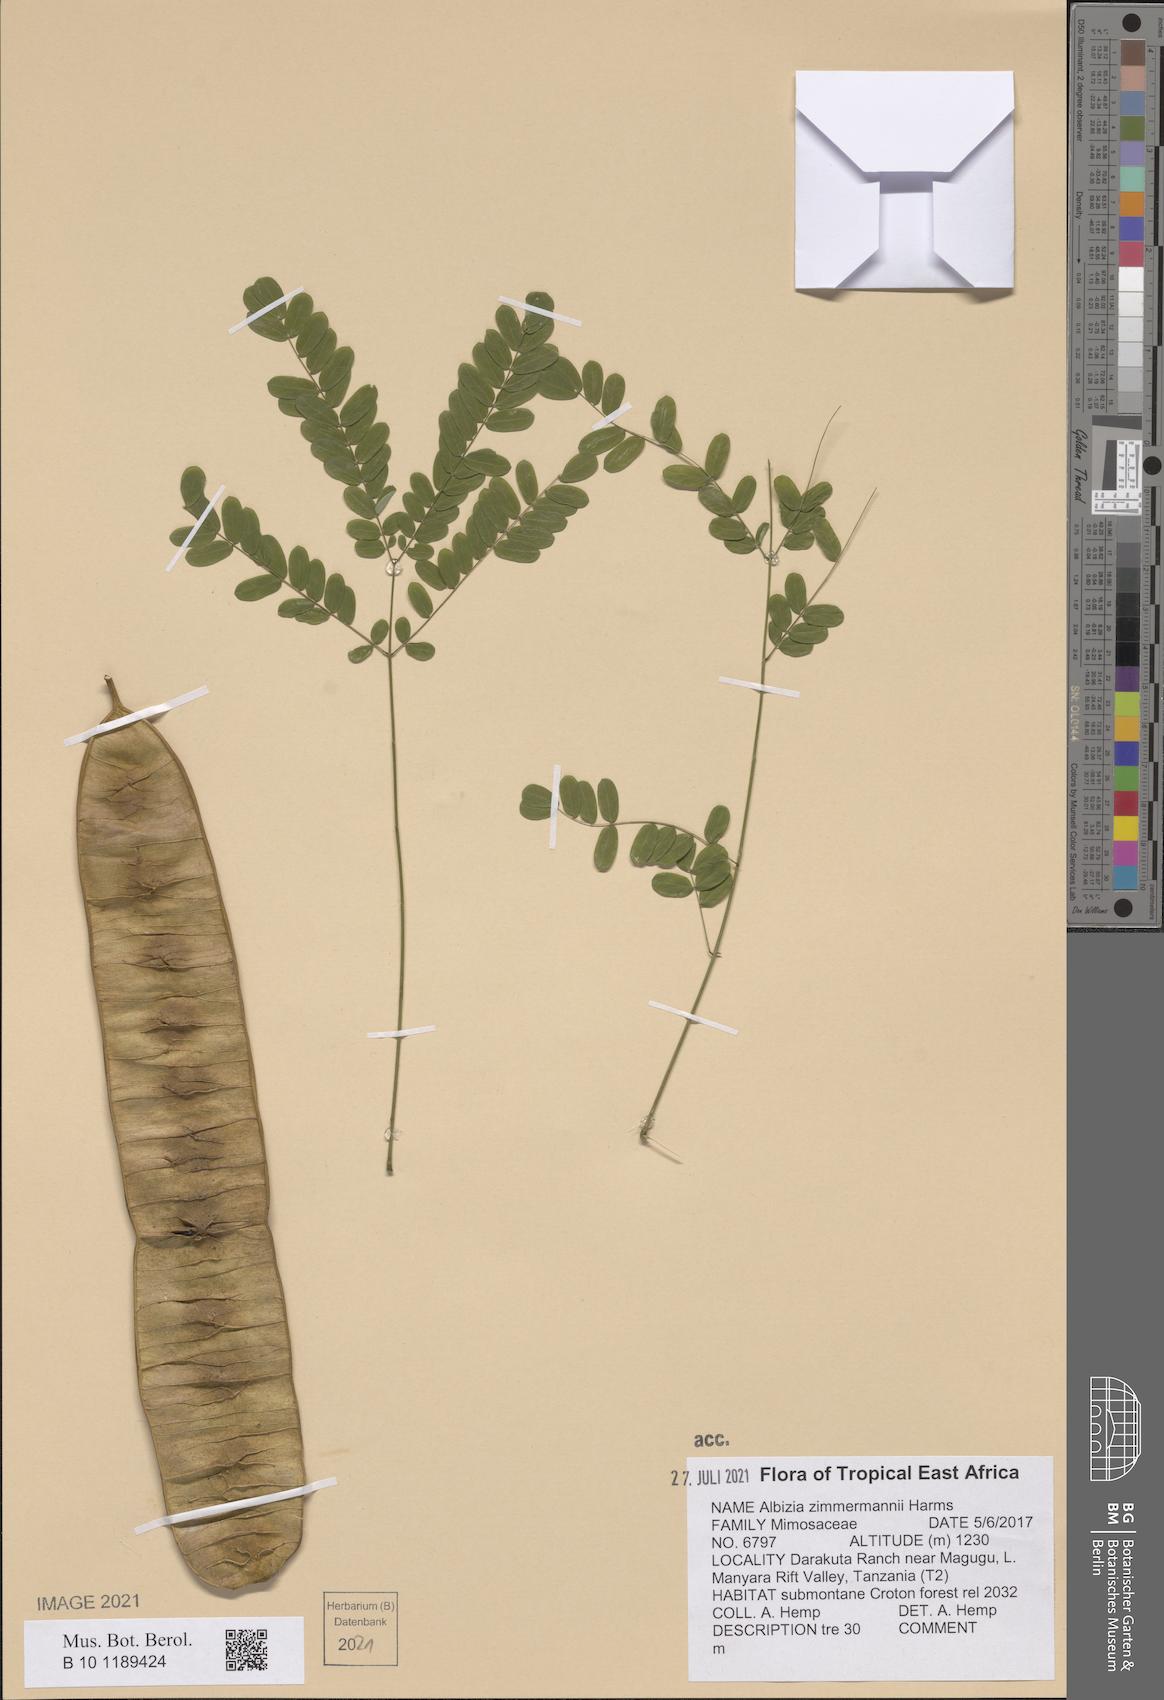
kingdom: Plantae
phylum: Tracheophyta
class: Magnoliopsida
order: Fabales
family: Fabaceae
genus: Albizia
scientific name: Albizia zimmermannii
